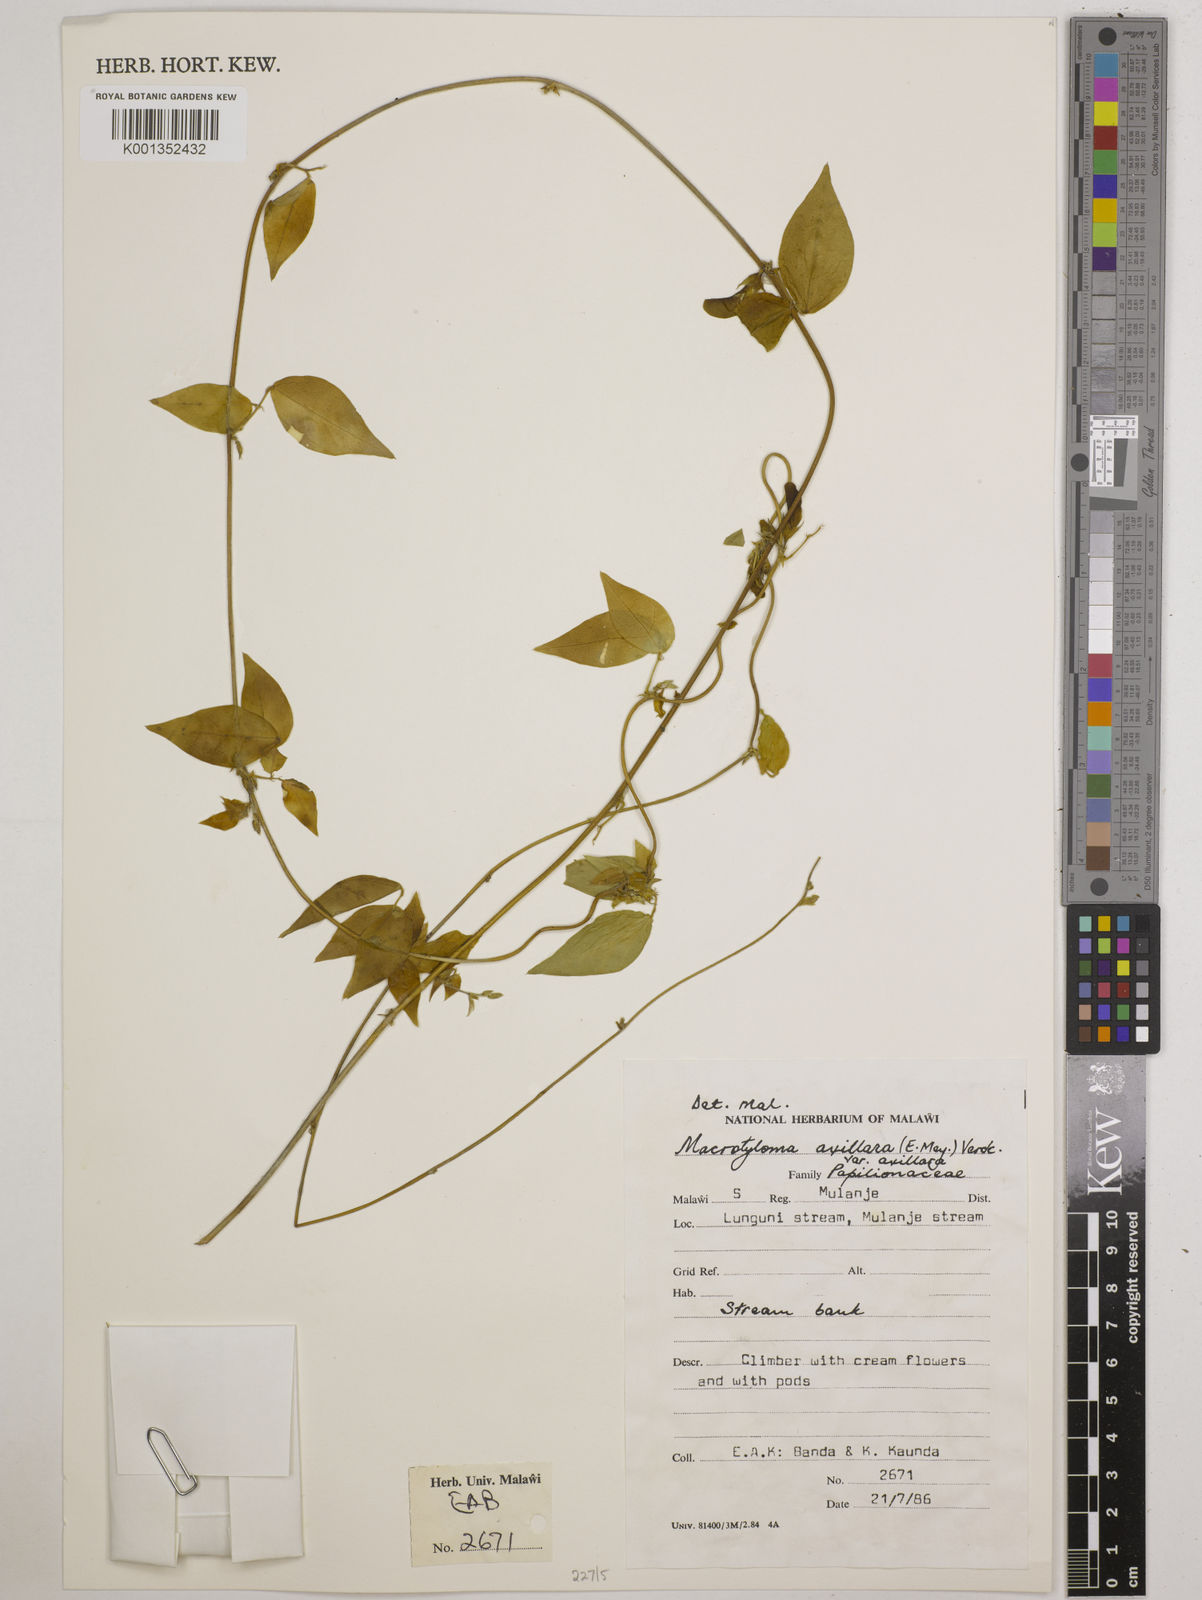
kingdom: Plantae
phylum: Tracheophyta
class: Magnoliopsida
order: Fabales
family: Fabaceae
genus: Macrotyloma
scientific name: Macrotyloma axillare
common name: Perennial horsegram
